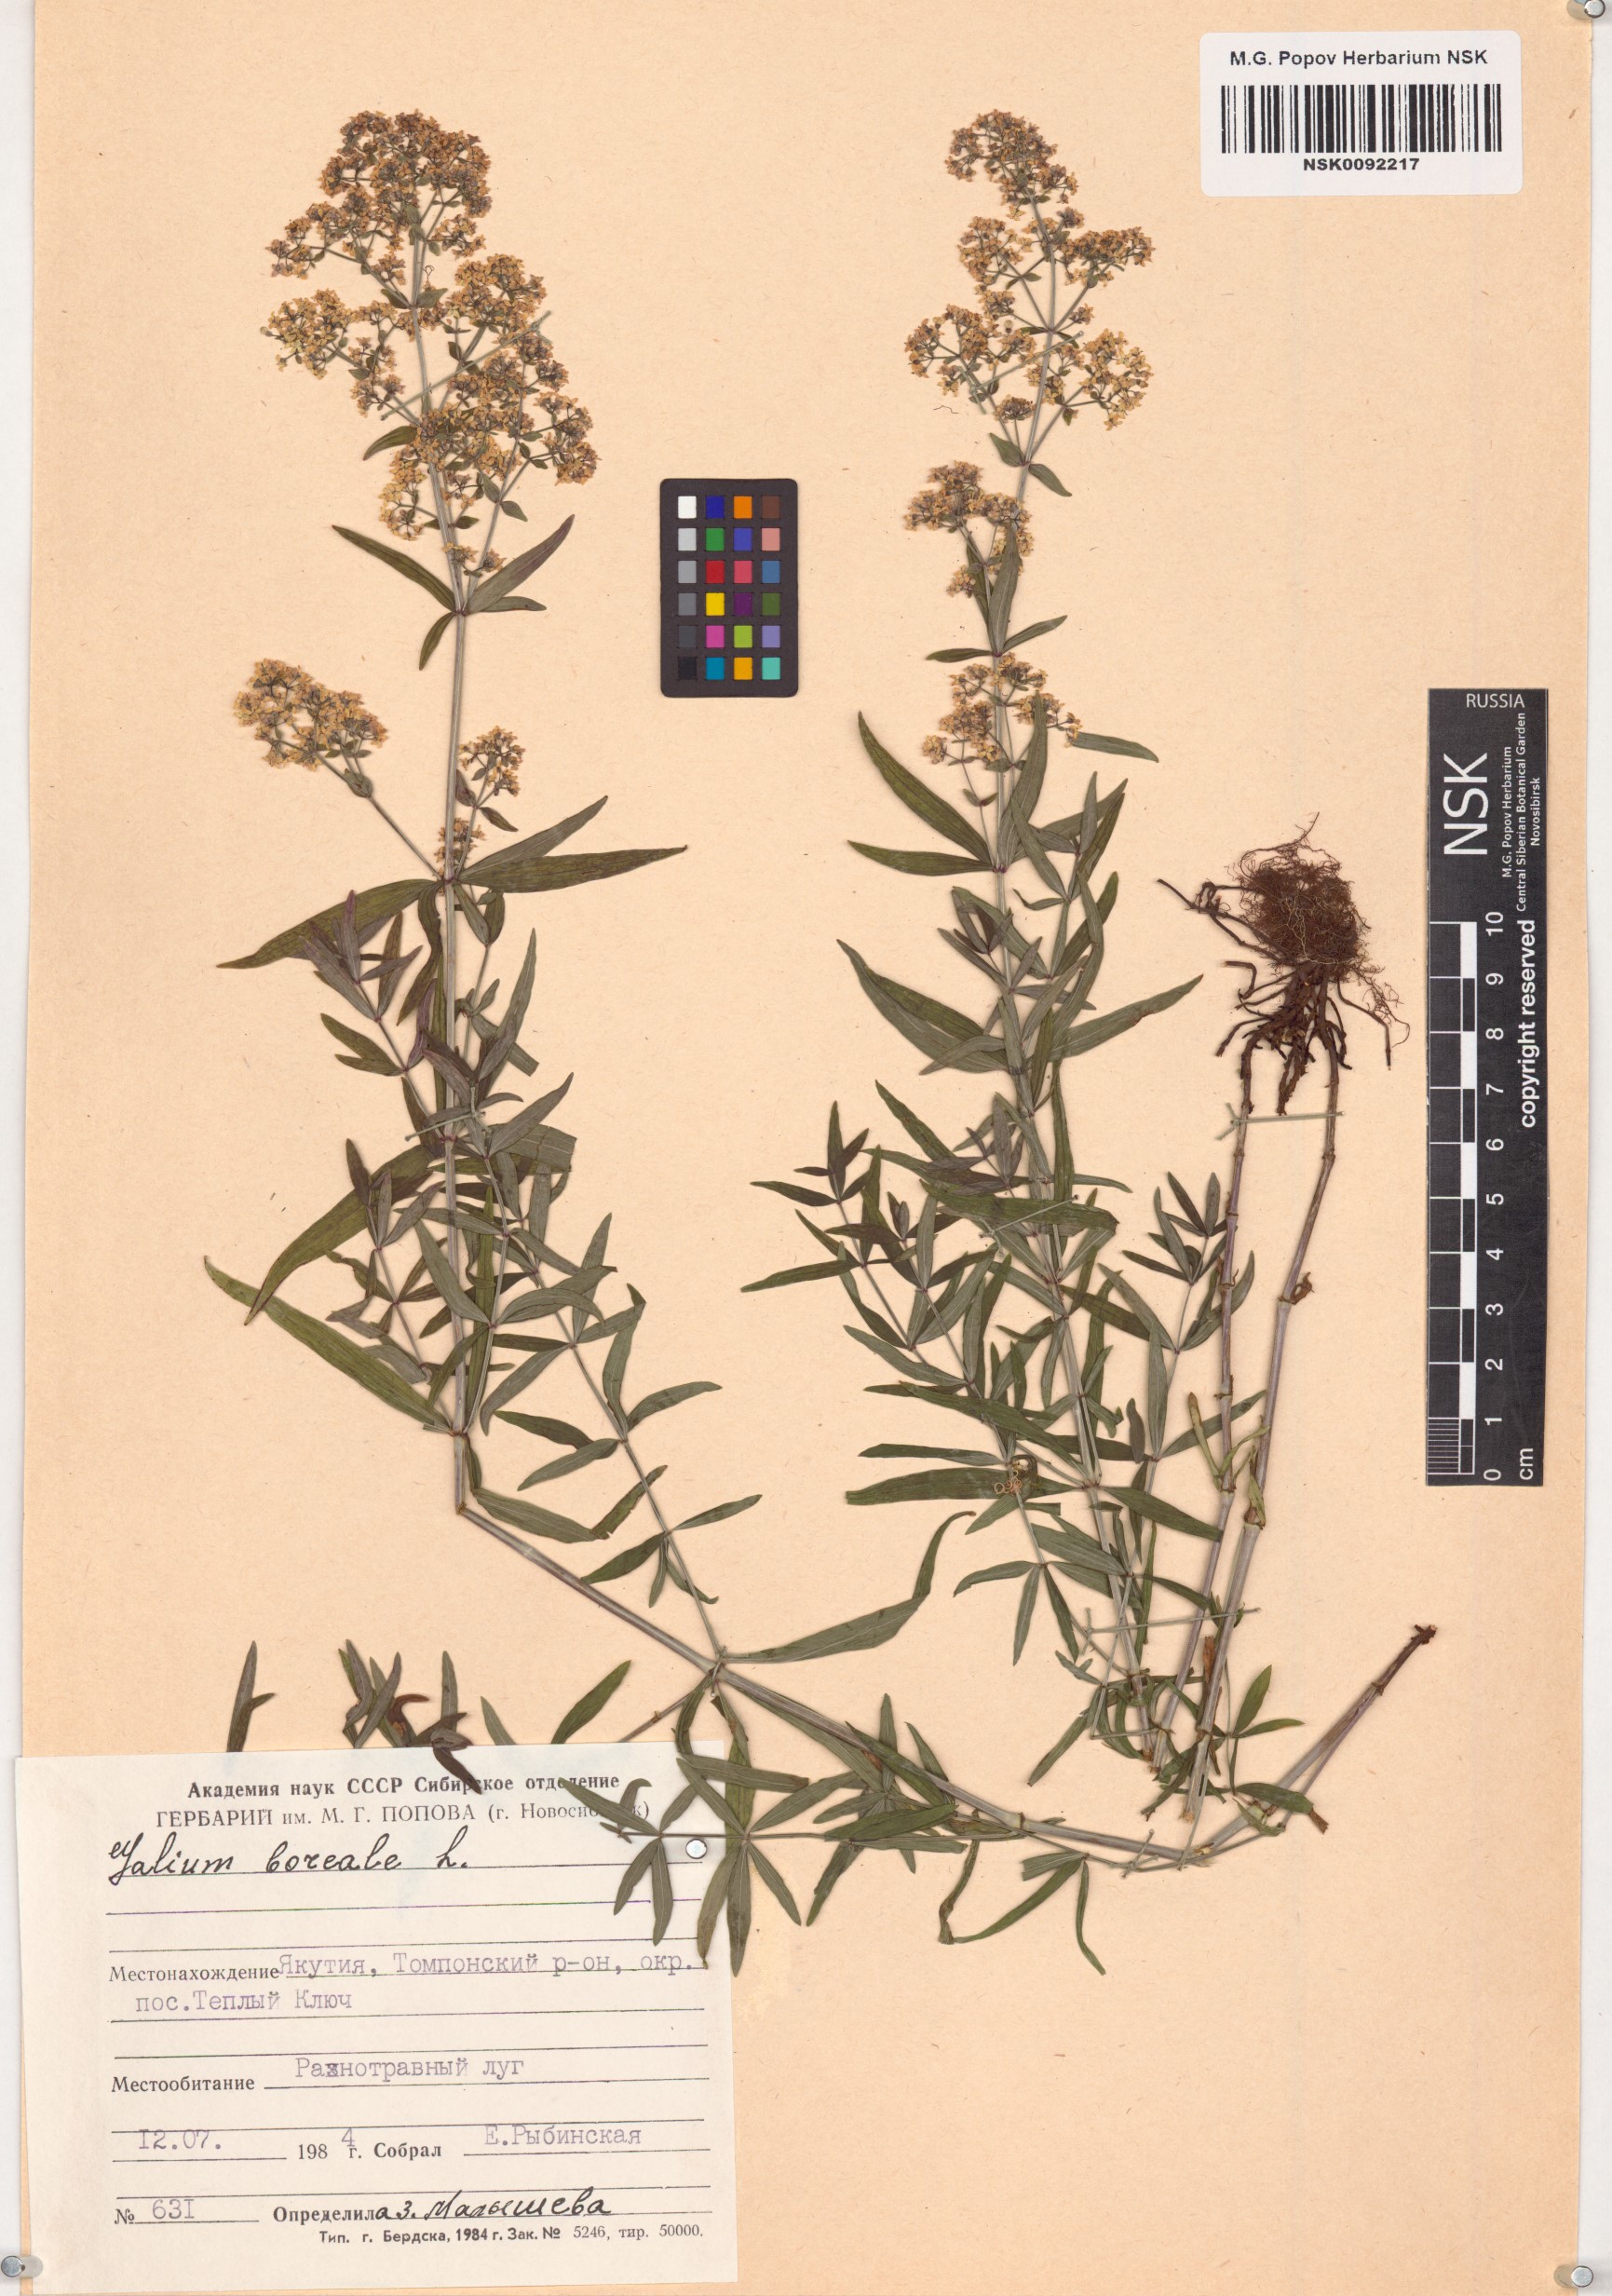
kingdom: Plantae
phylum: Tracheophyta
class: Magnoliopsida
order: Gentianales
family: Rubiaceae
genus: Galium
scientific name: Galium boreale
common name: Northern bedstraw
